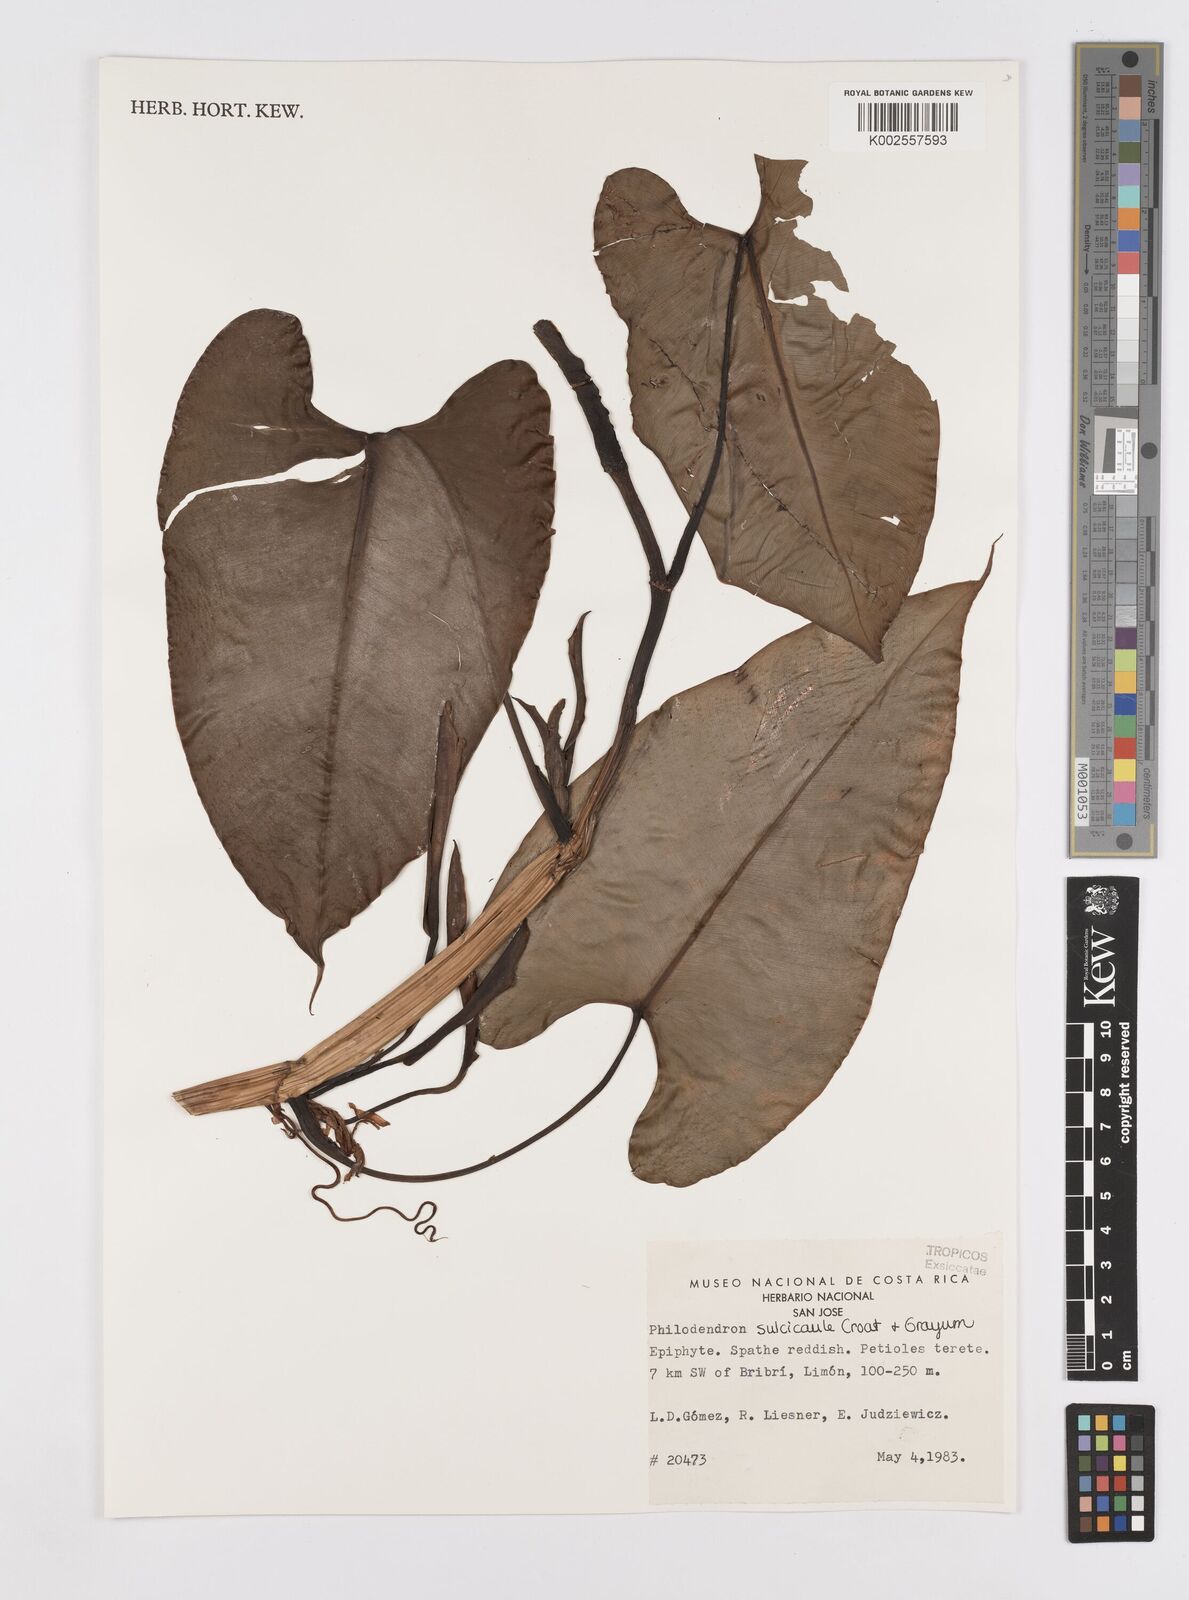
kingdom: Plantae
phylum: Tracheophyta
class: Liliopsida
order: Alismatales
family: Araceae
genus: Philodendron
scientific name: Philodendron sulcicaule
